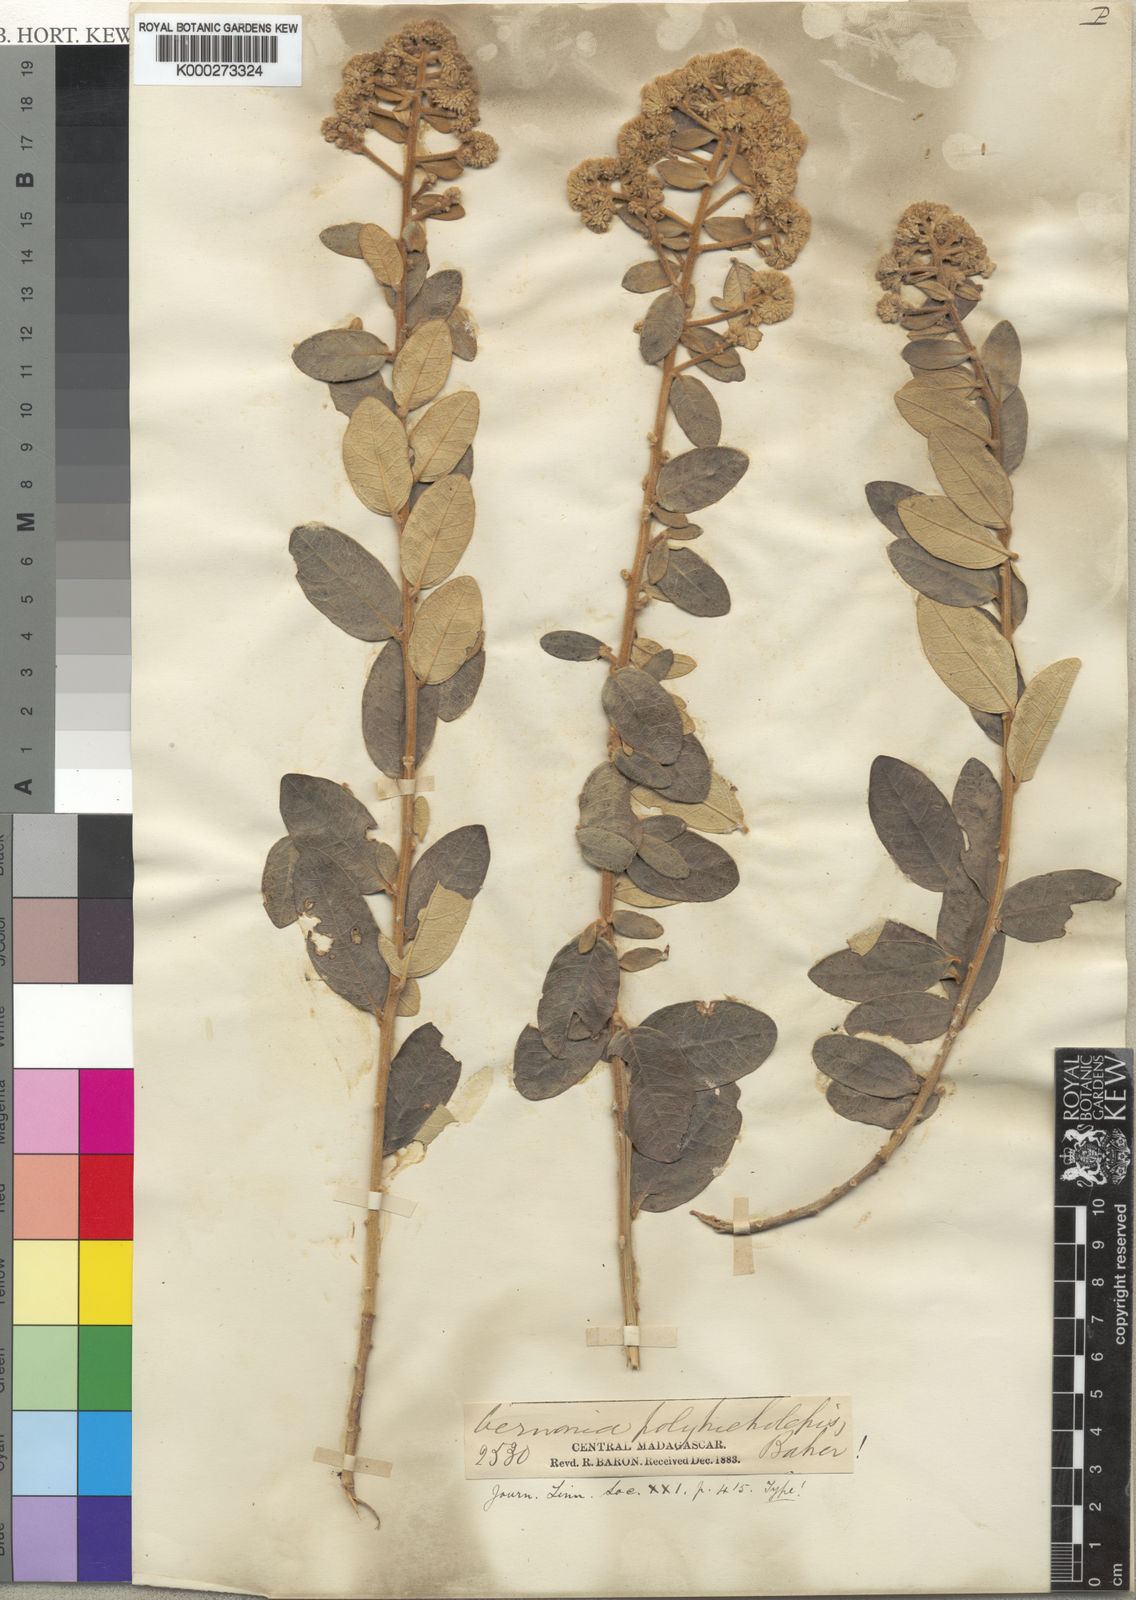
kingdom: Plantae
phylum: Tracheophyta
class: Magnoliopsida
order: Asterales
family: Asteraceae
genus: Distephanus
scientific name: Distephanus polytricholepis
